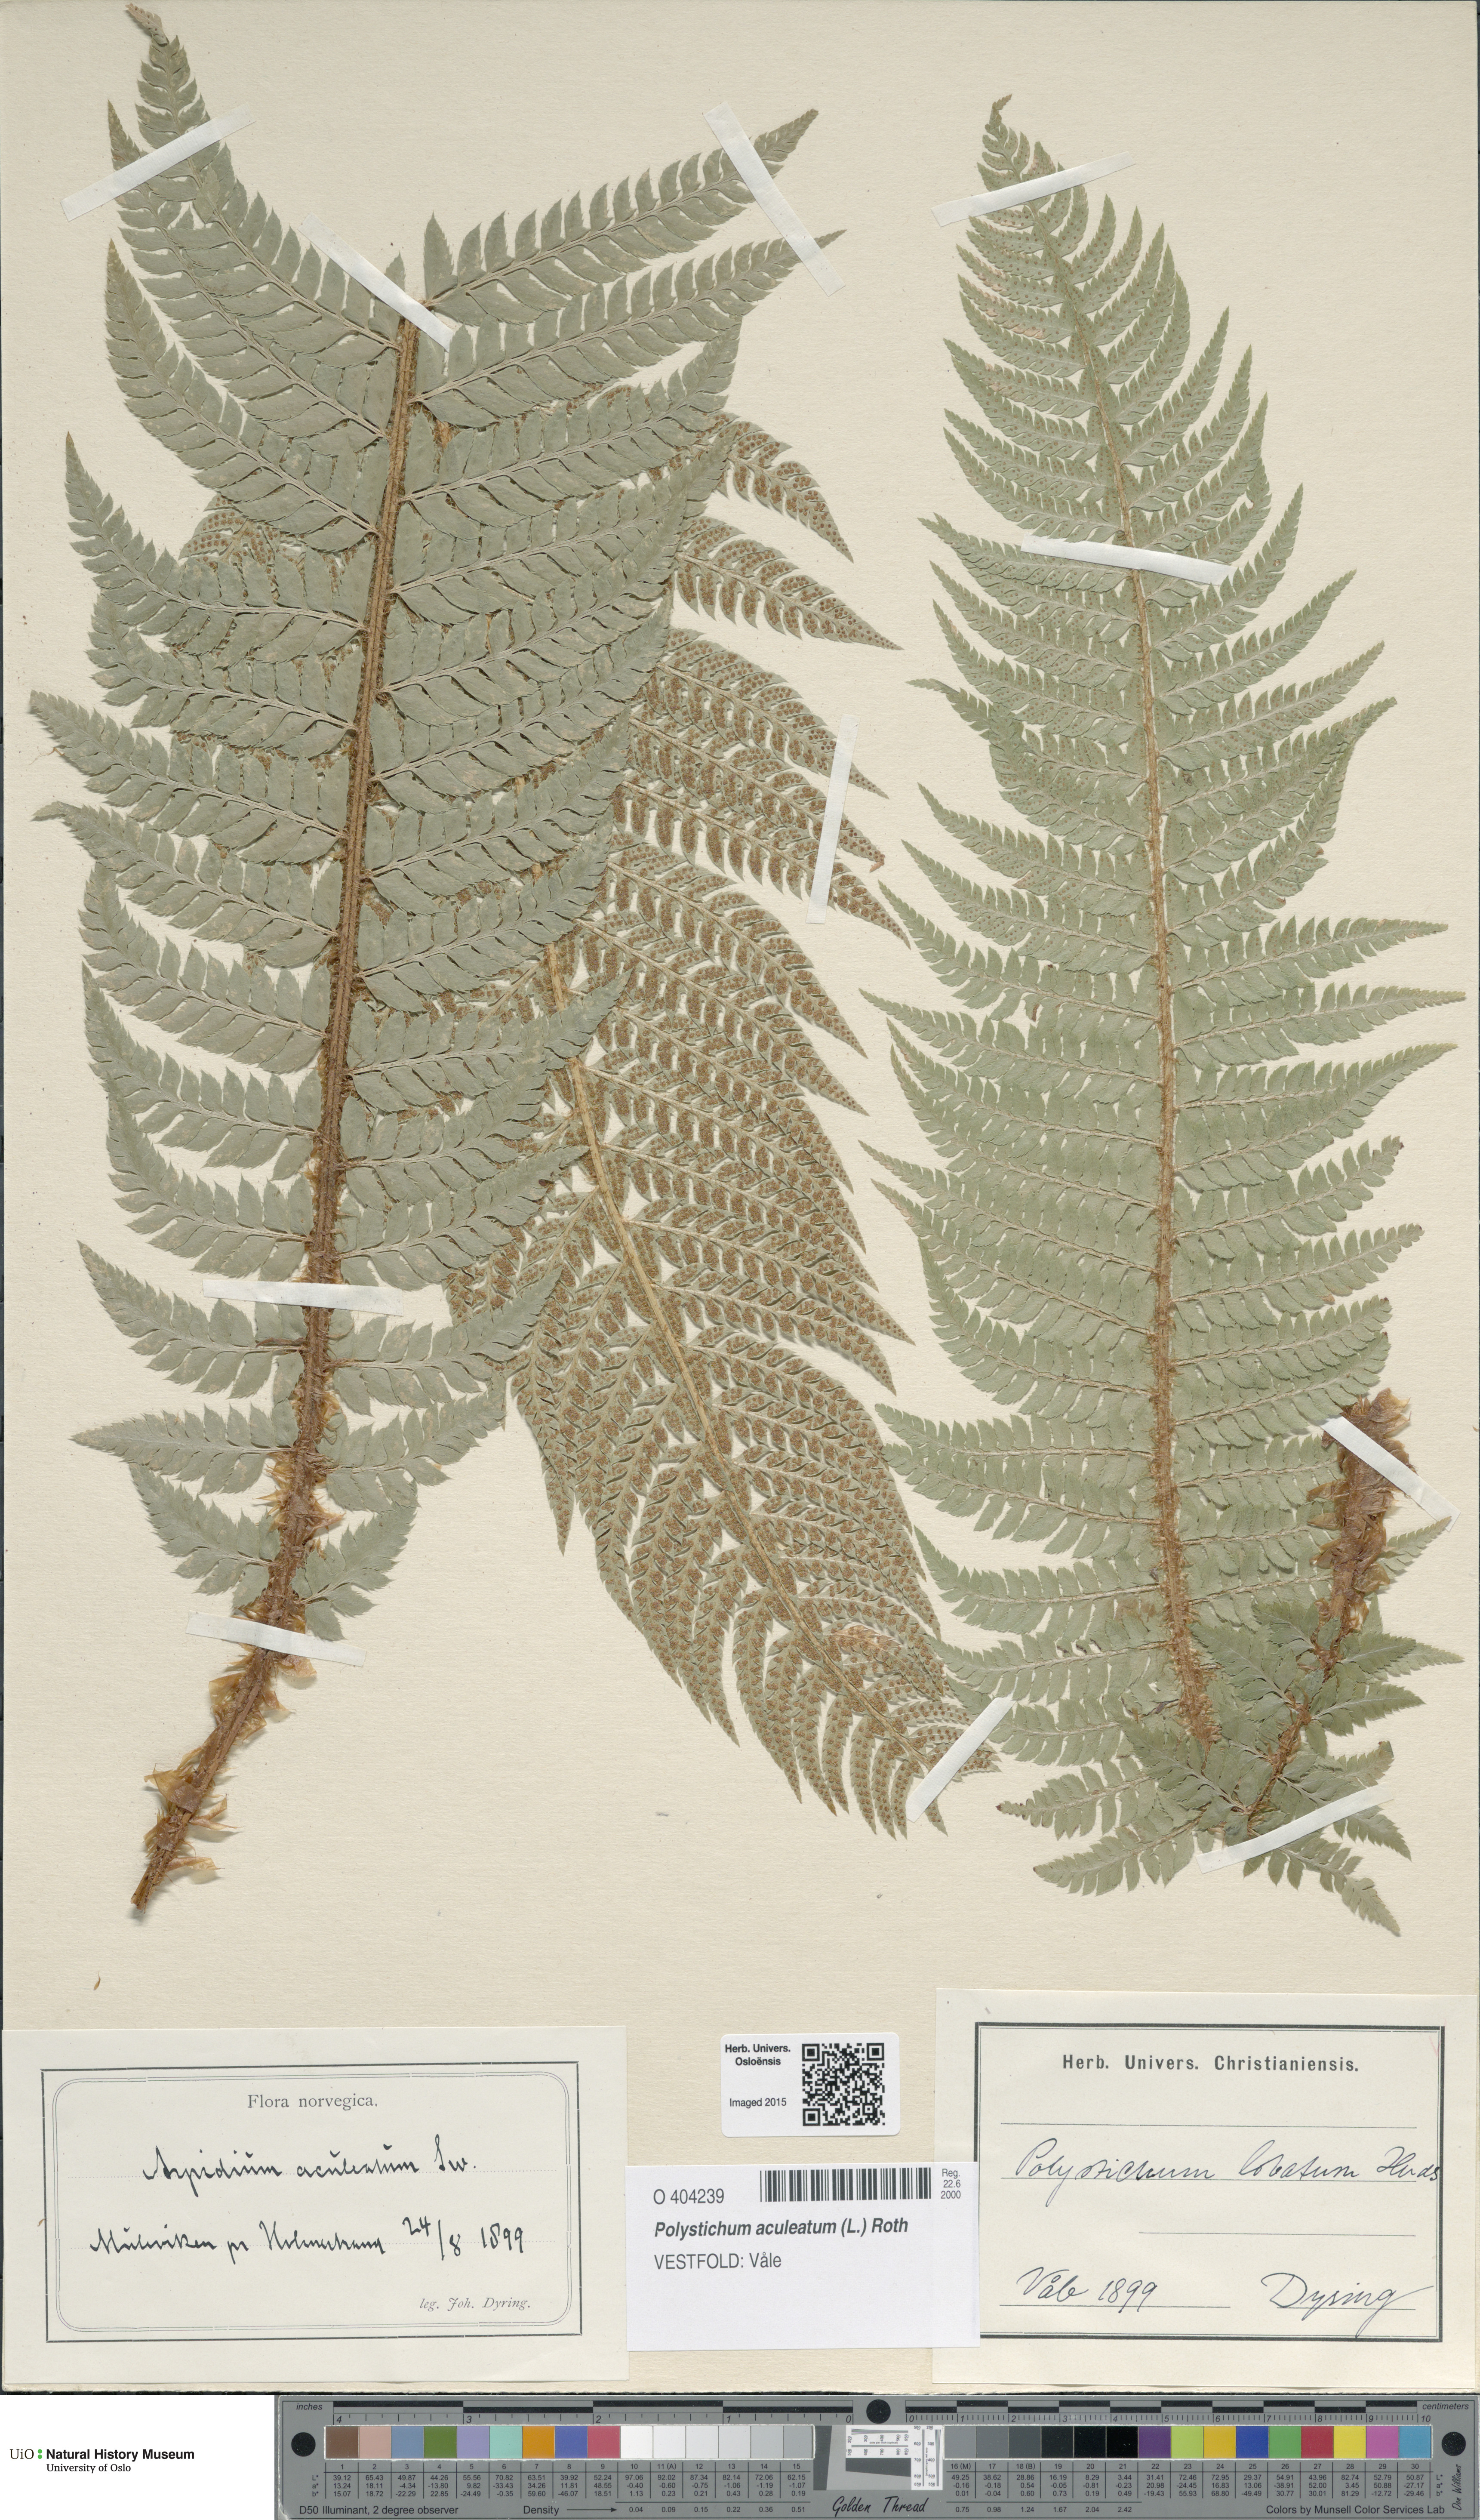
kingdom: Plantae
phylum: Tracheophyta
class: Polypodiopsida
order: Polypodiales
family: Dryopteridaceae
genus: Polystichum
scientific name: Polystichum aculeatum
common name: Hard shield-fern
